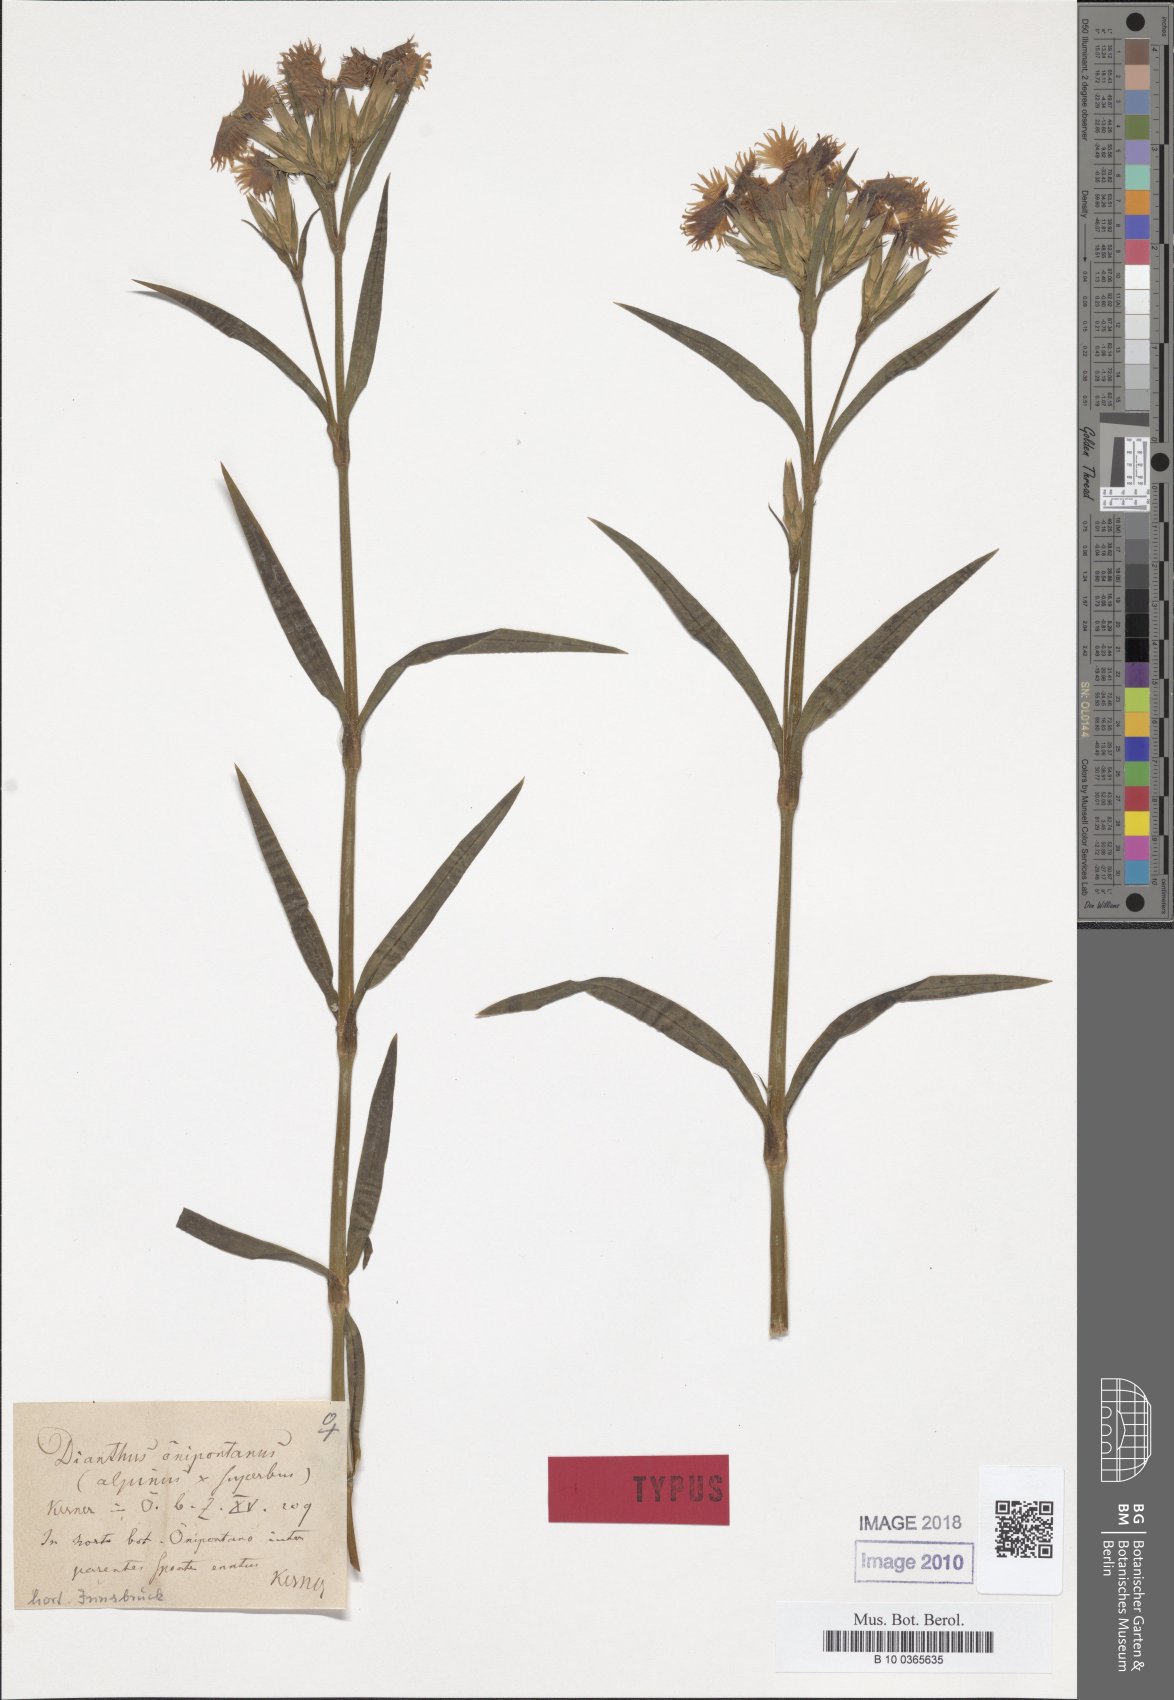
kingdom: Plantae
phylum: Tracheophyta
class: Magnoliopsida
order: Caryophyllales
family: Caryophyllaceae
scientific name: Caryophyllaceae
